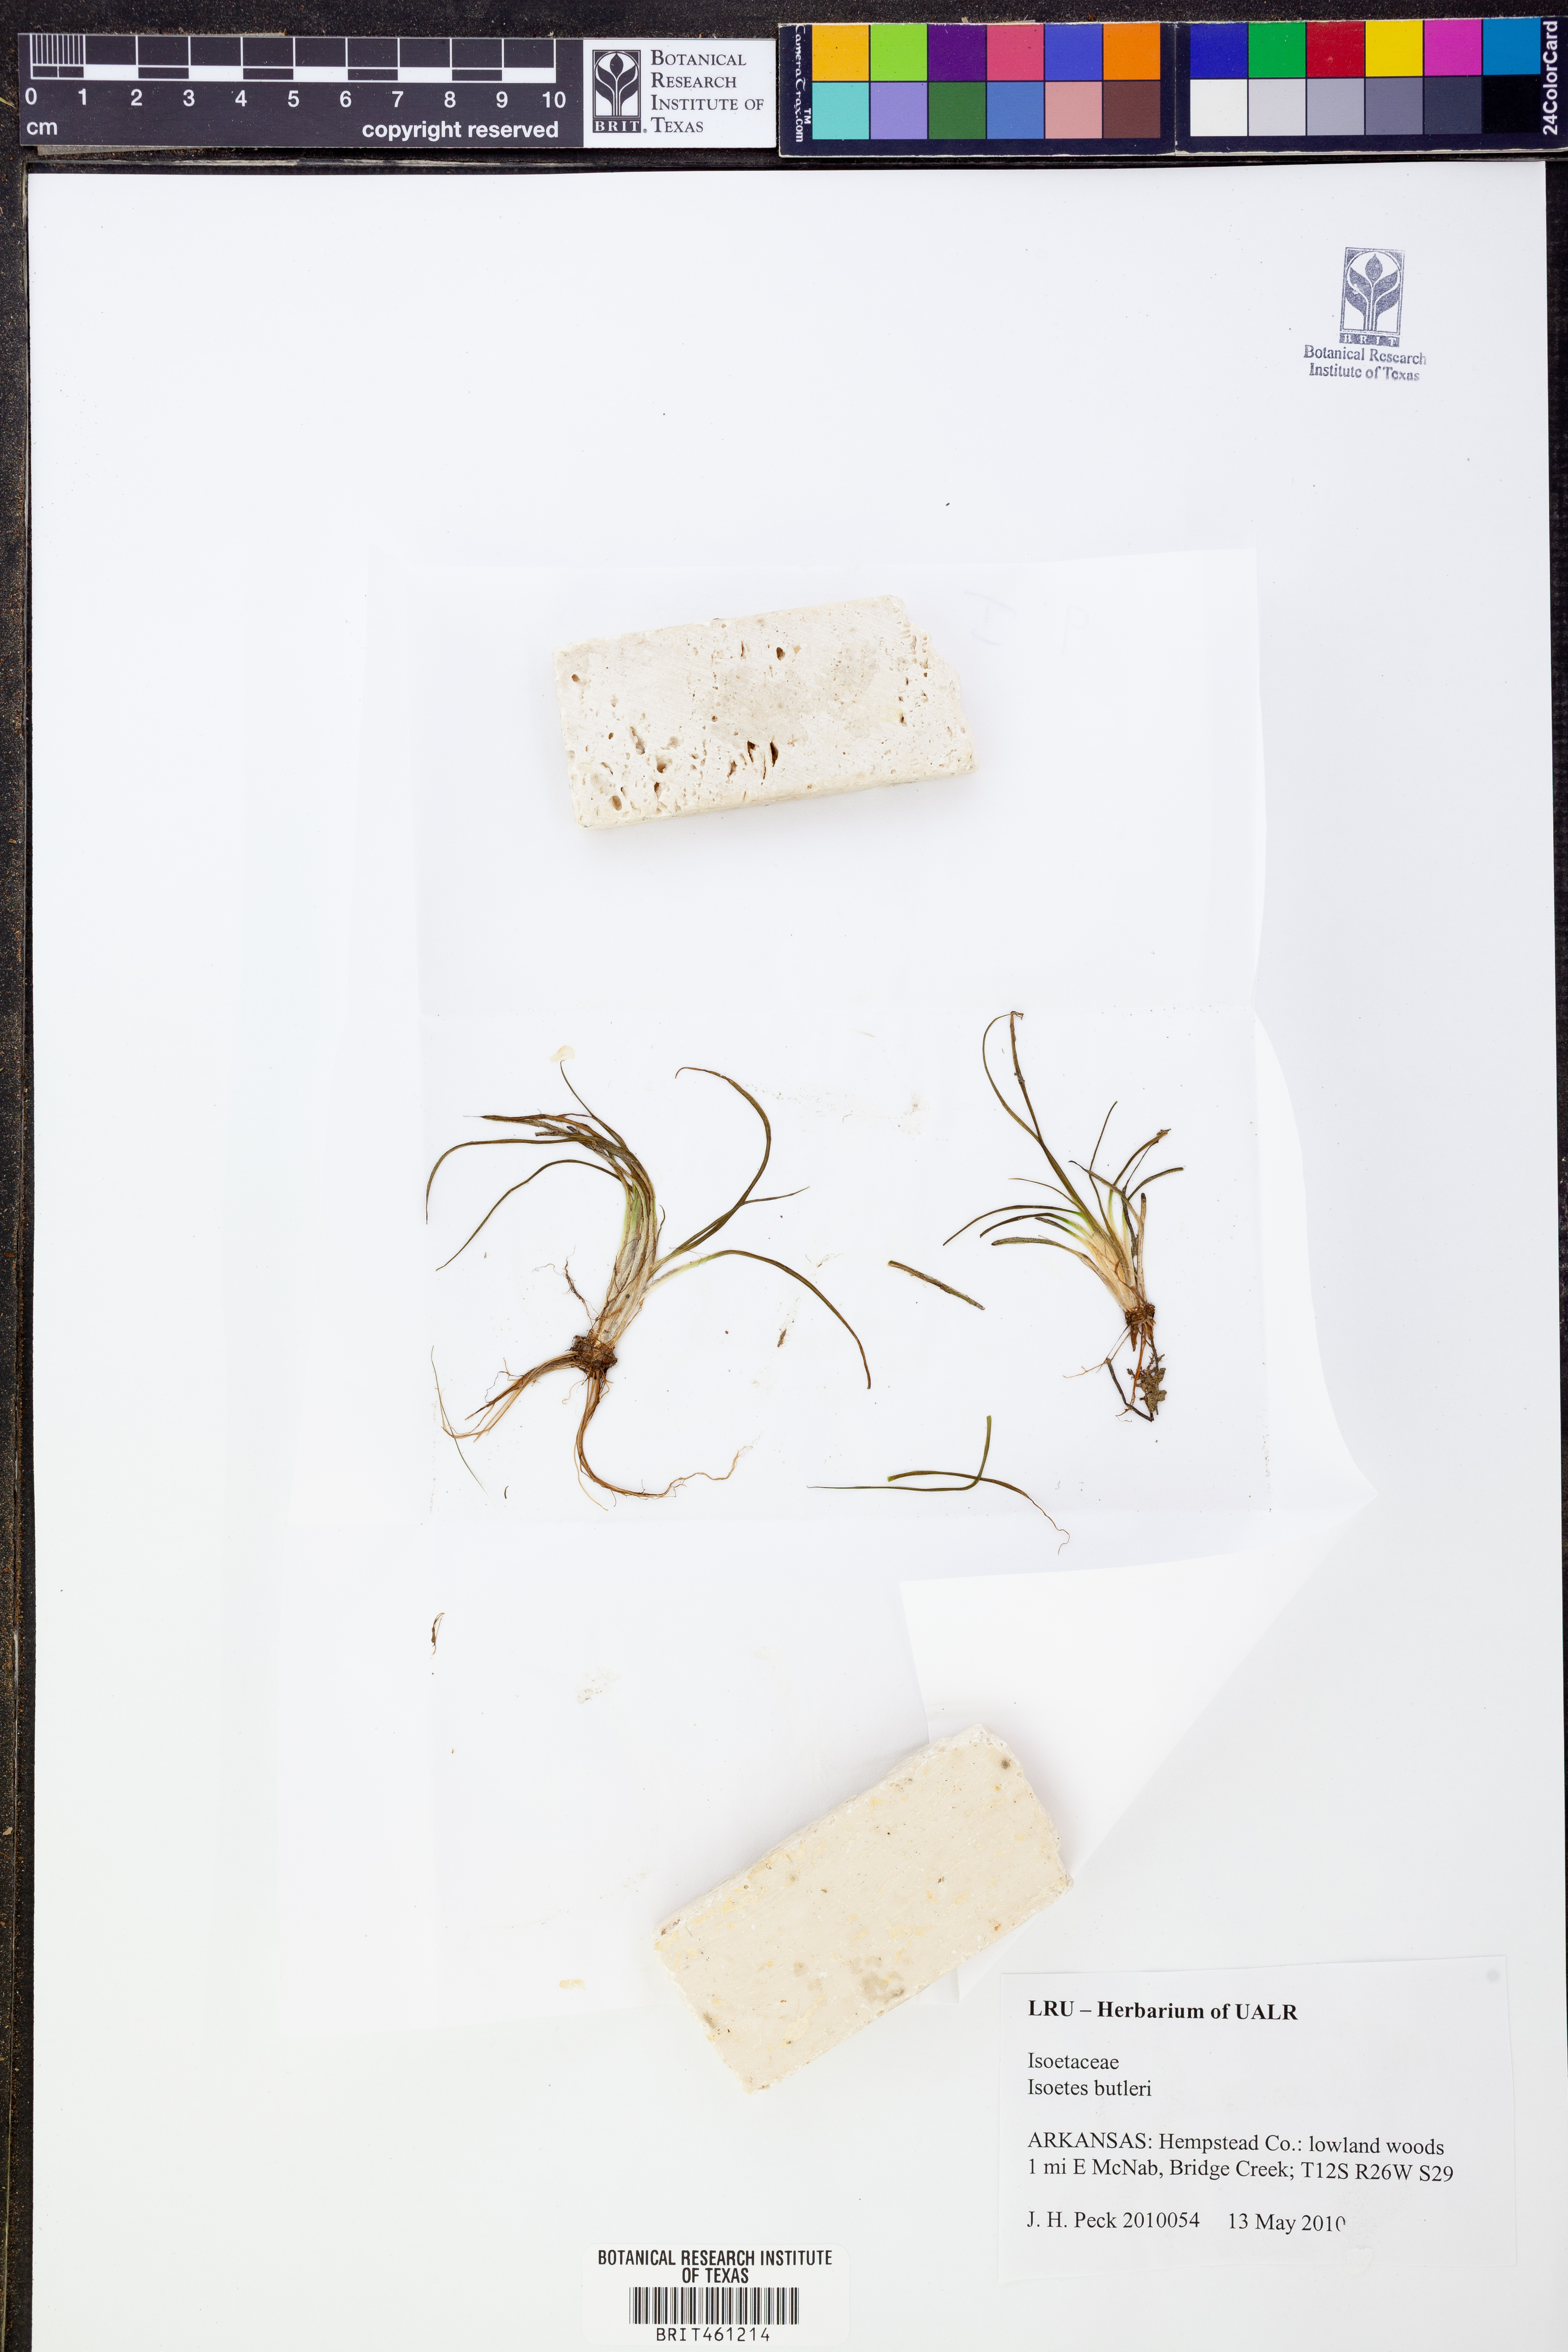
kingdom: Plantae
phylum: Tracheophyta
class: Lycopodiopsida
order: Isoetales
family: Isoetaceae
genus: Isoetes
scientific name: Isoetes butleri
